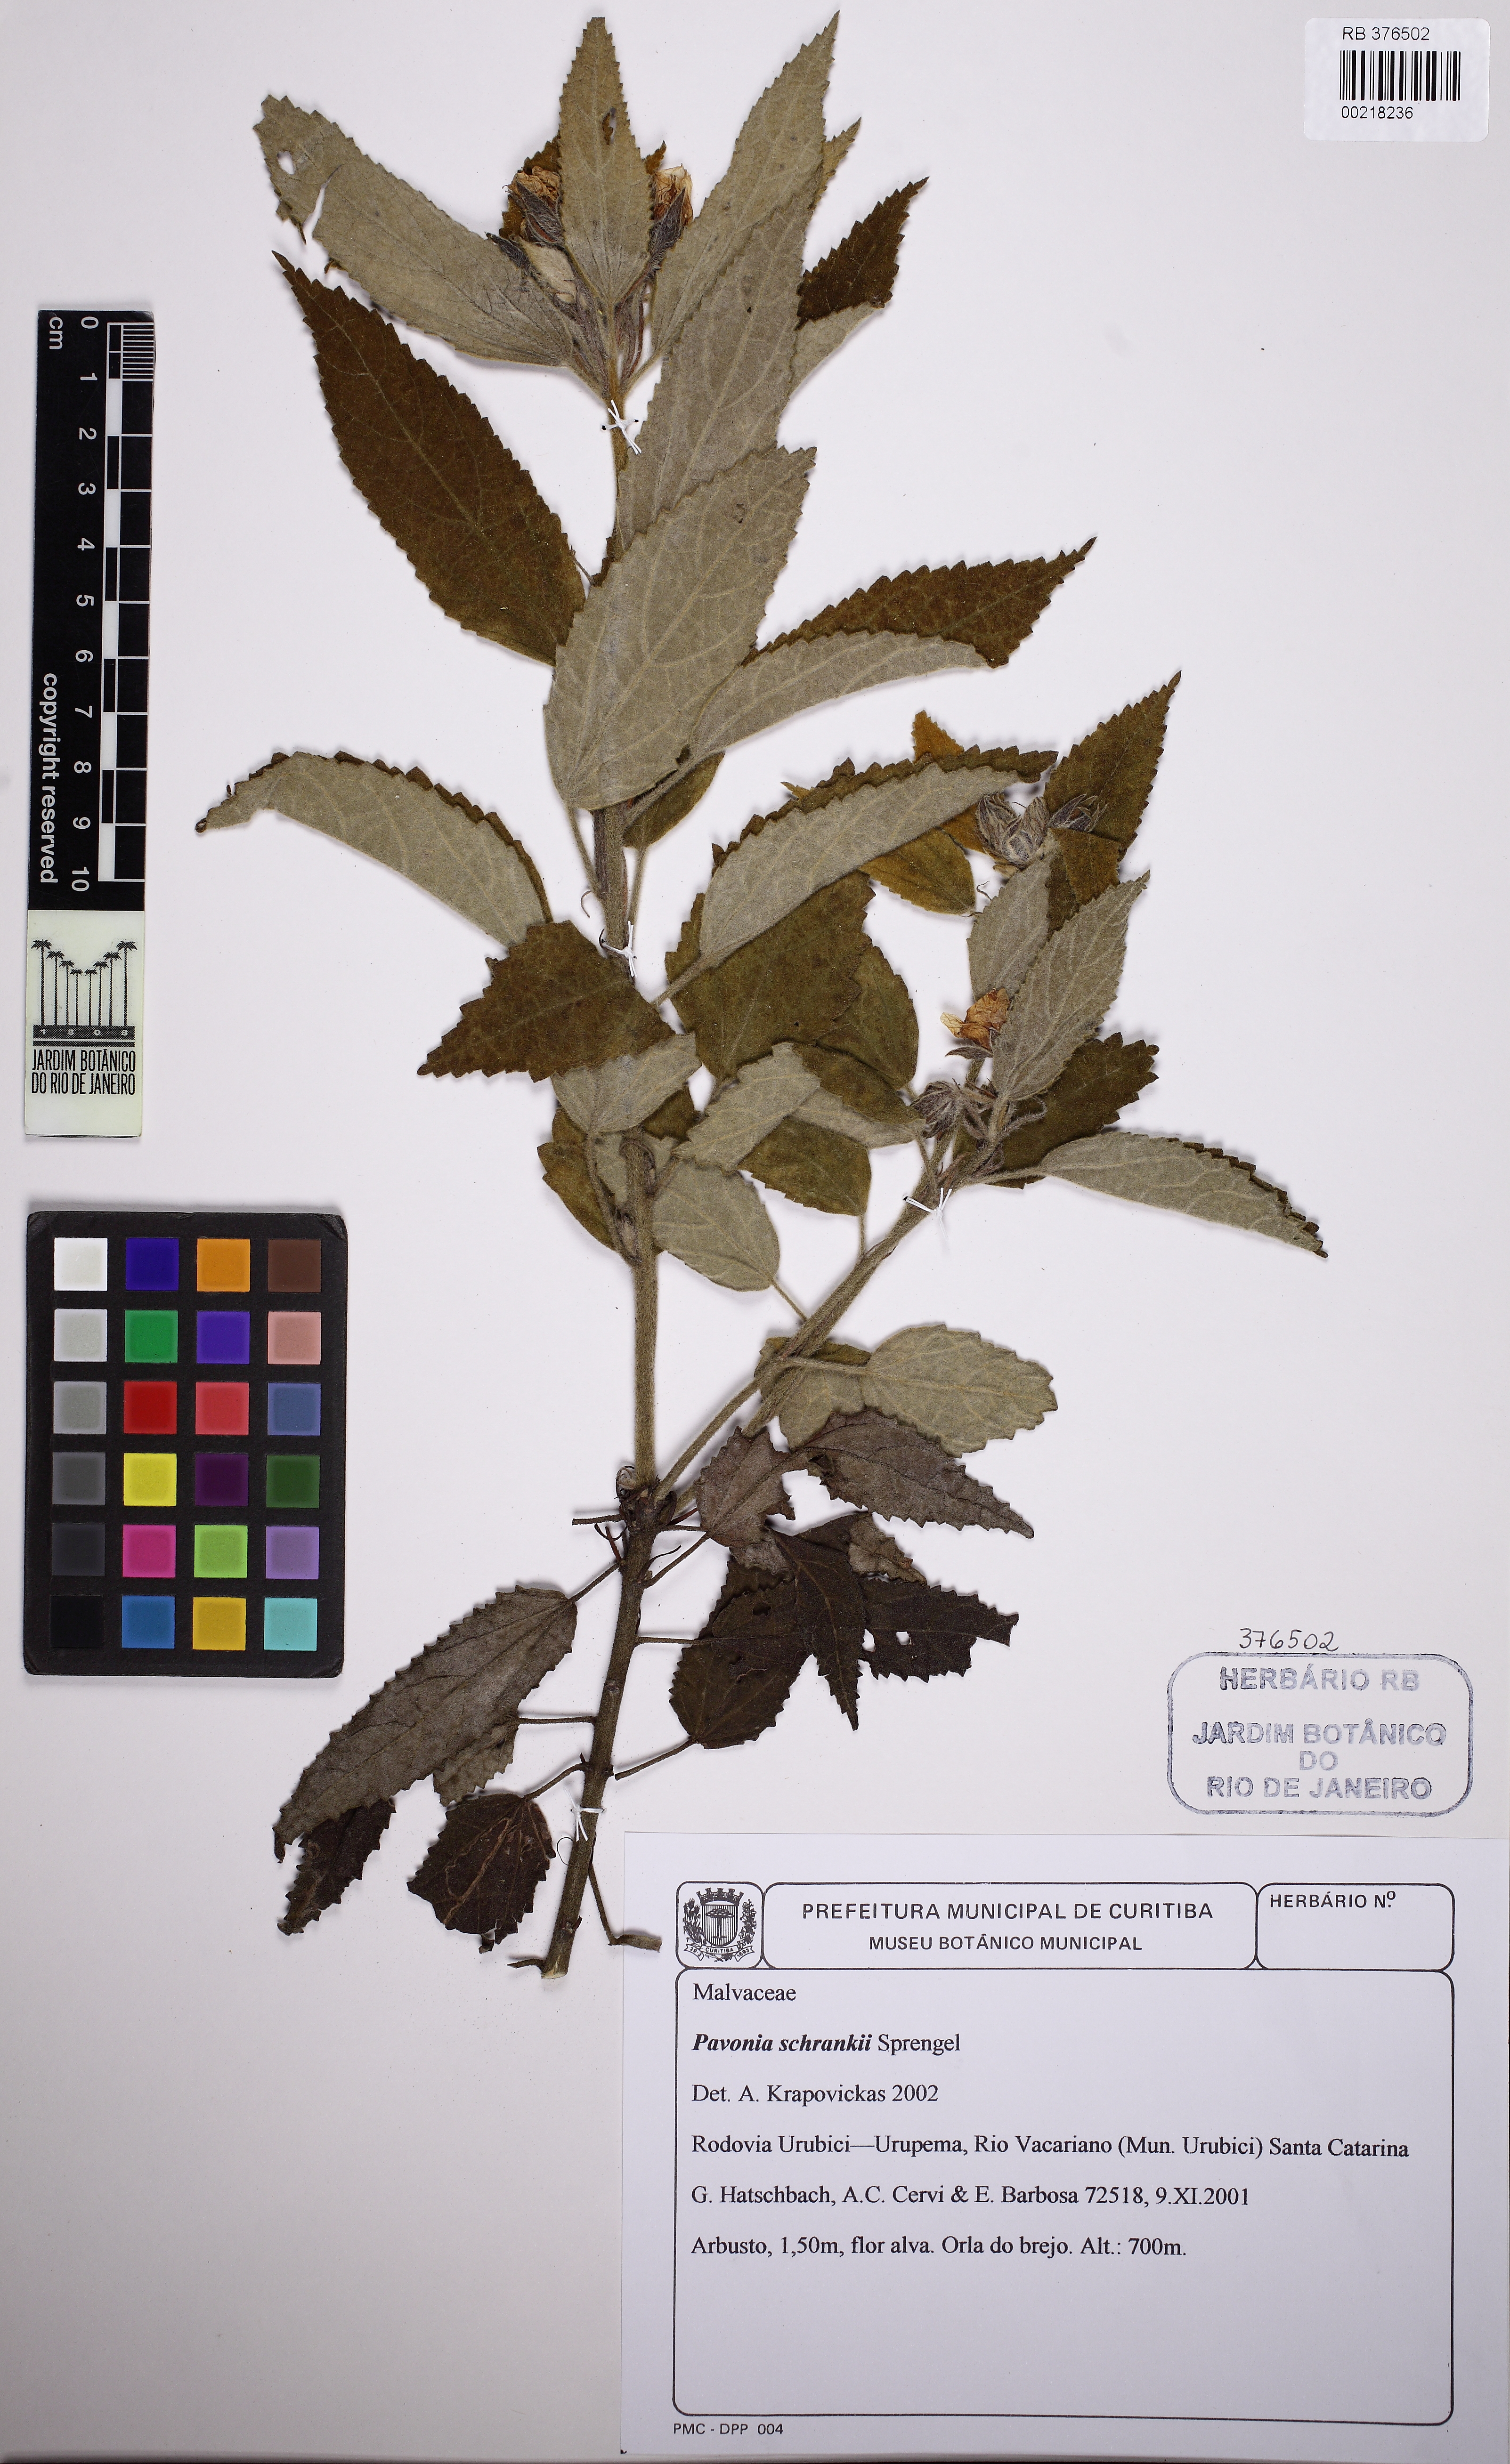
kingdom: Plantae
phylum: Tracheophyta
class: Magnoliopsida
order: Malvales
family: Malvaceae
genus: Pavonia
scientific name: Pavonia schrankii
